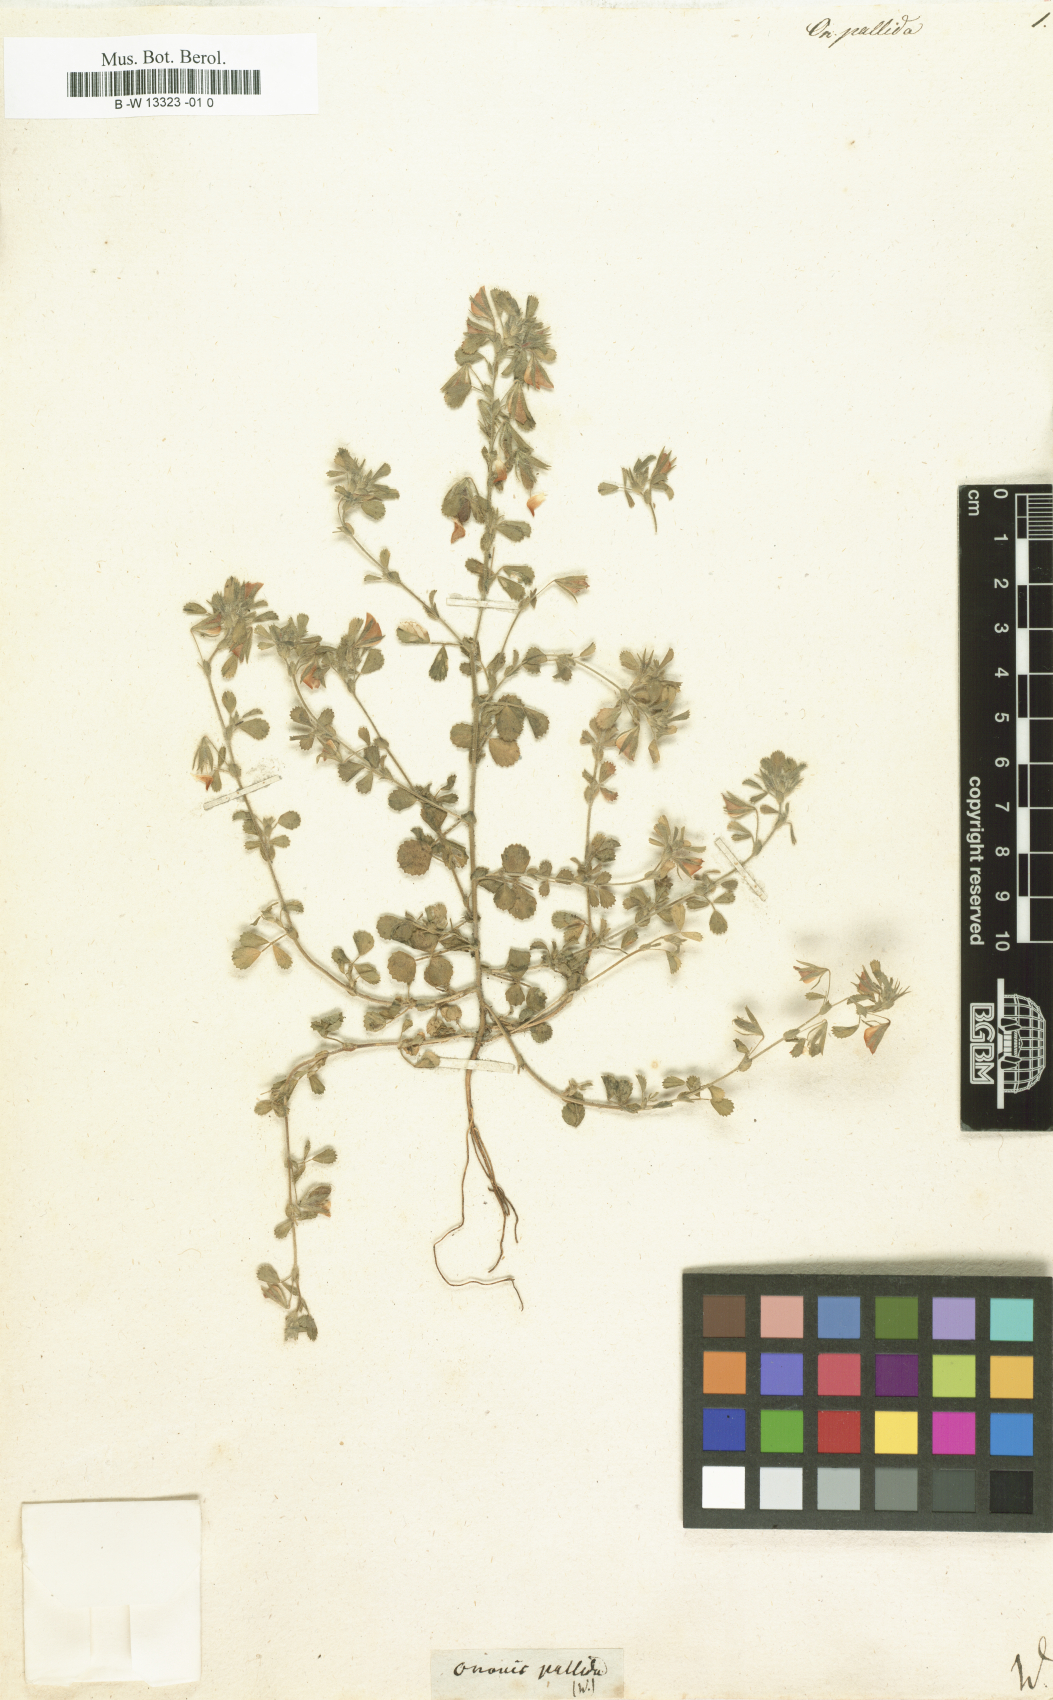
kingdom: Plantae
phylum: Tracheophyta
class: Magnoliopsida
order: Fabales
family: Fabaceae
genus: Ononis
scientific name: Ononis pallida
